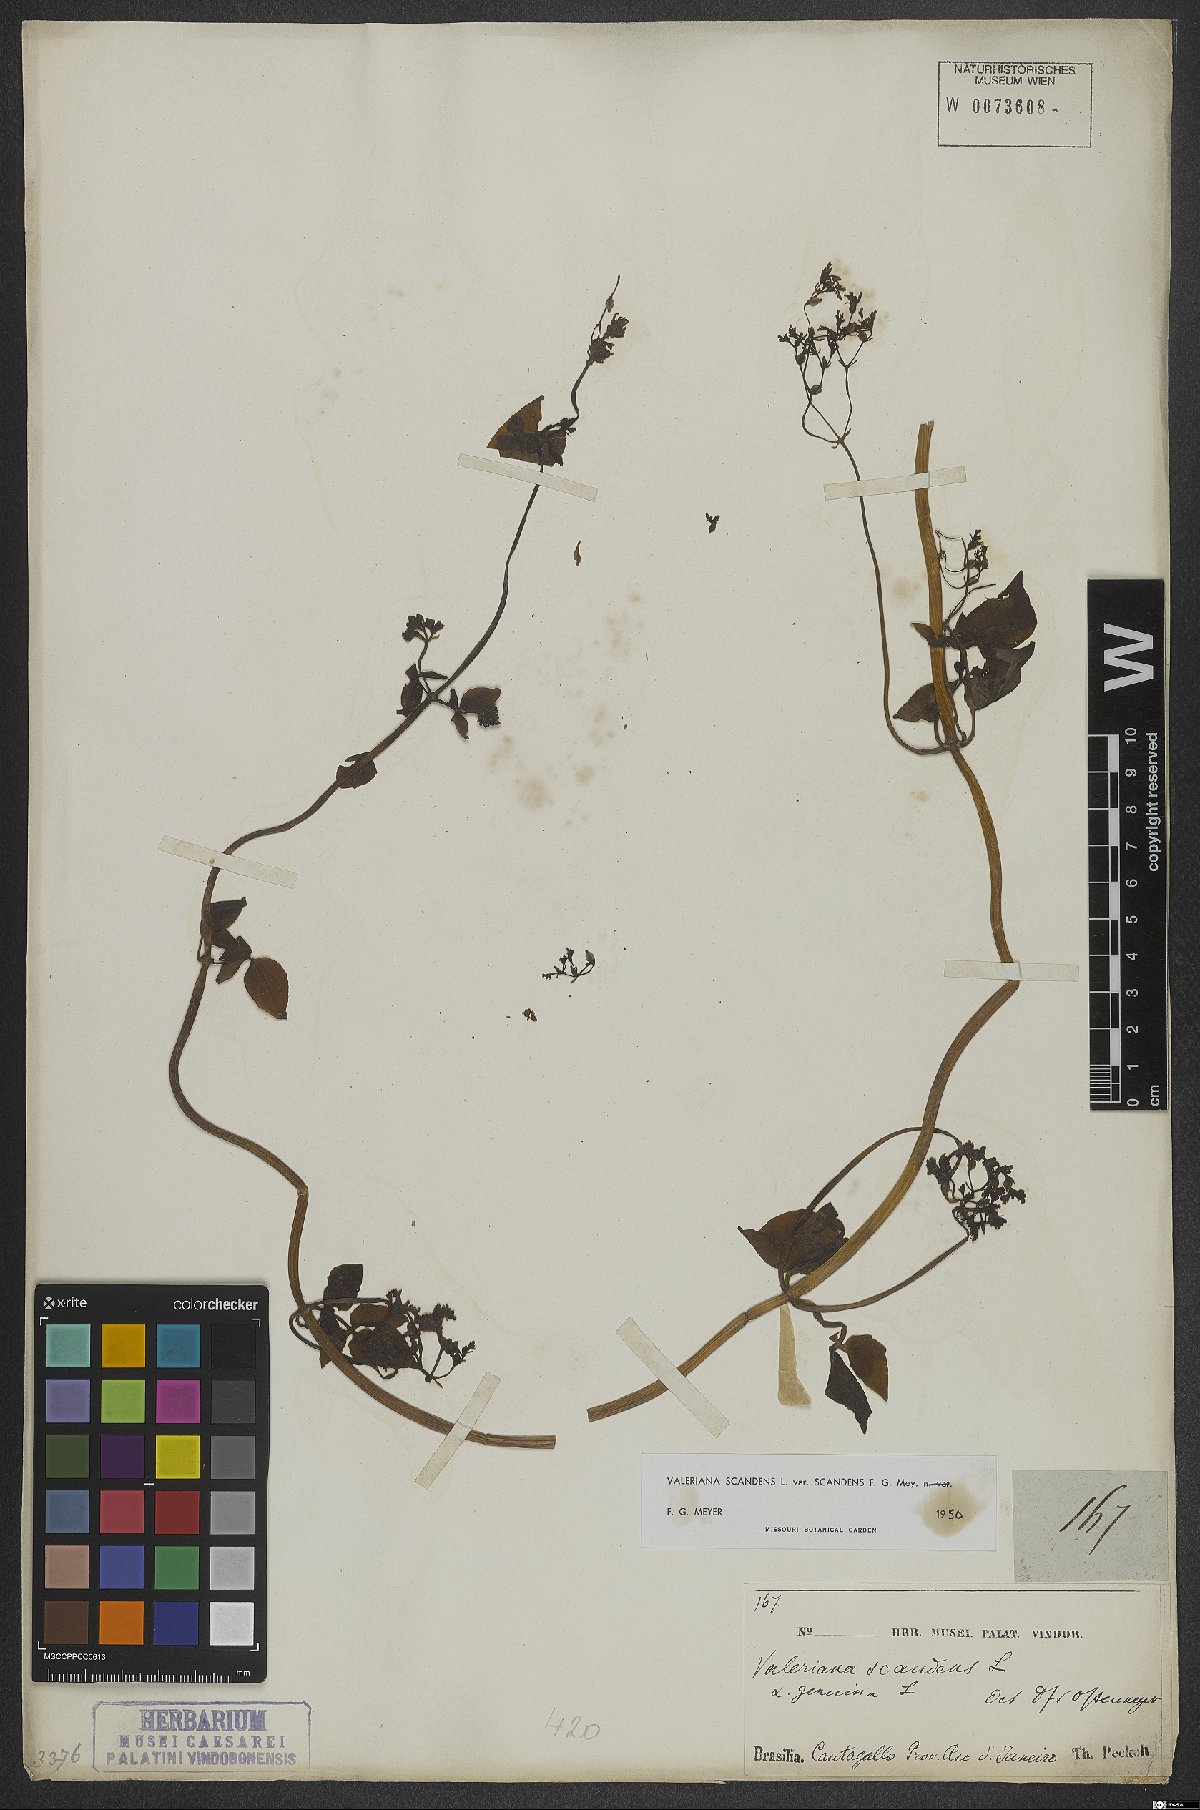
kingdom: Plantae
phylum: Tracheophyta
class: Magnoliopsida
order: Dipsacales
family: Caprifoliaceae
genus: Valeriana
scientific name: Valeriana scandens
